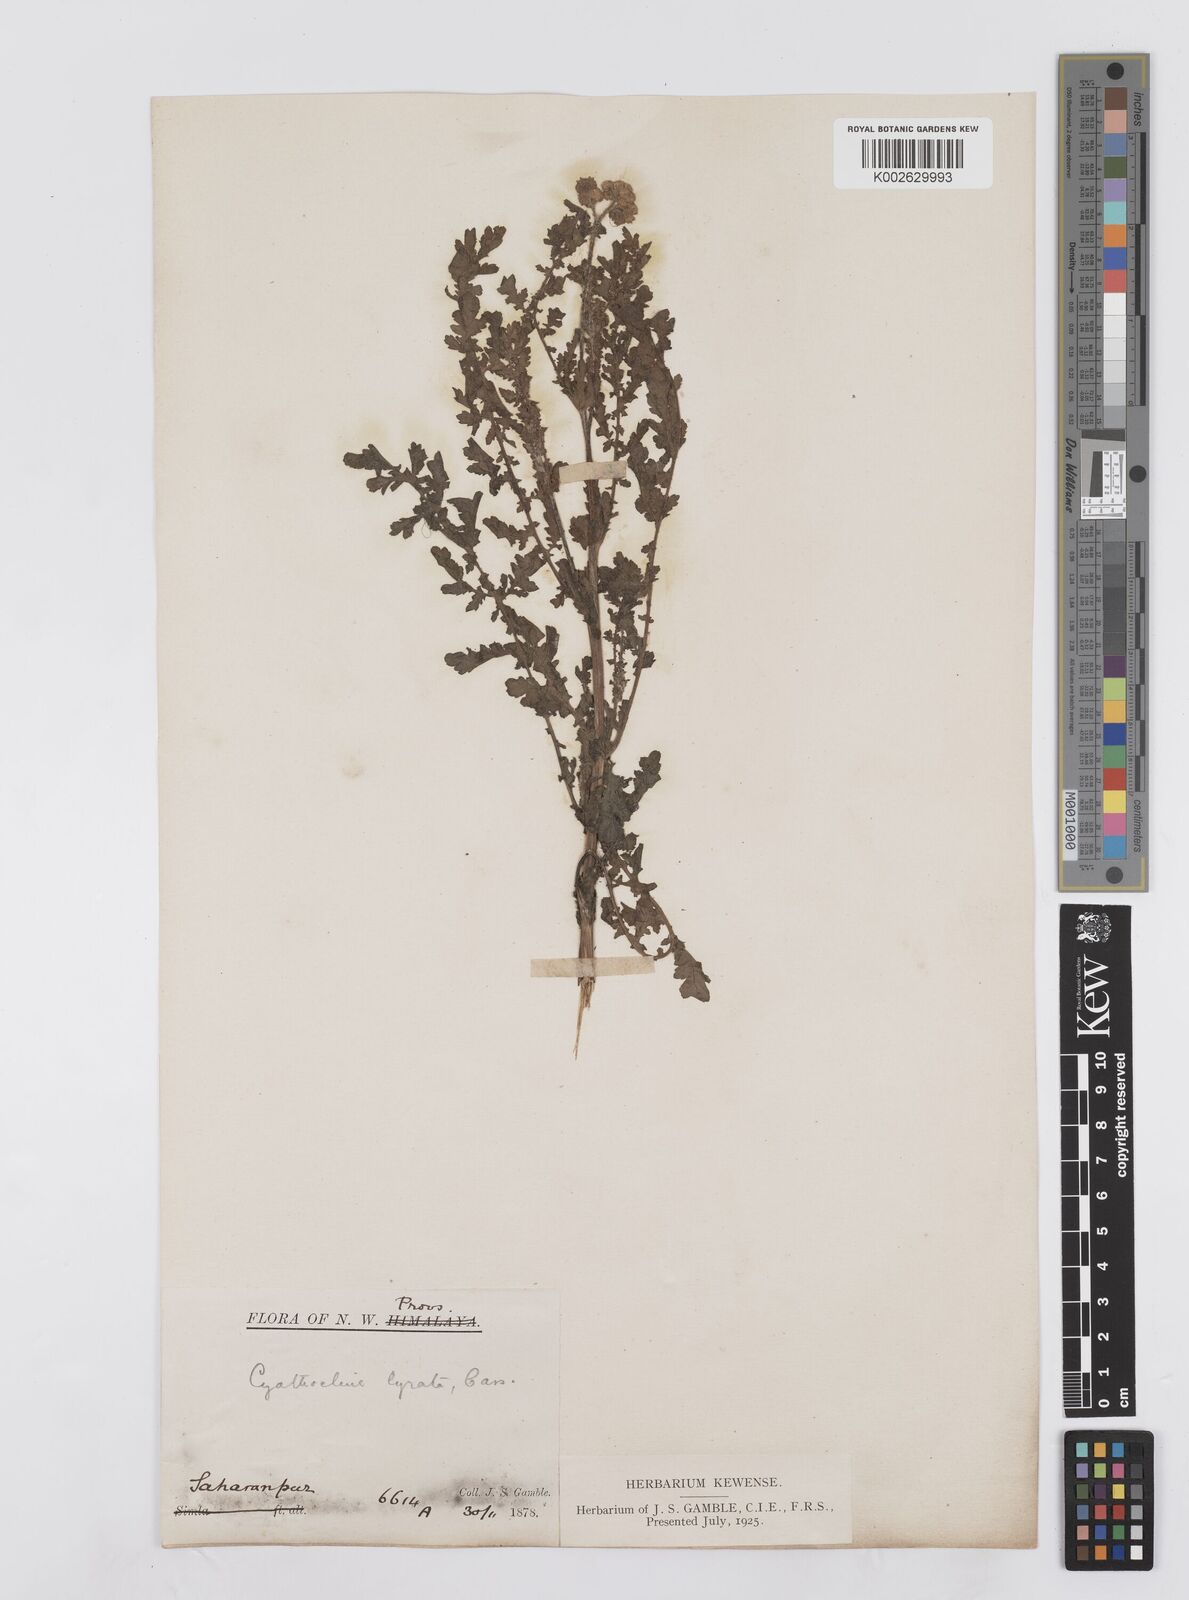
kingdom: Plantae
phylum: Tracheophyta
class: Magnoliopsida
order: Asterales
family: Asteraceae
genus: Cyathocline
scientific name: Cyathocline purpurea
